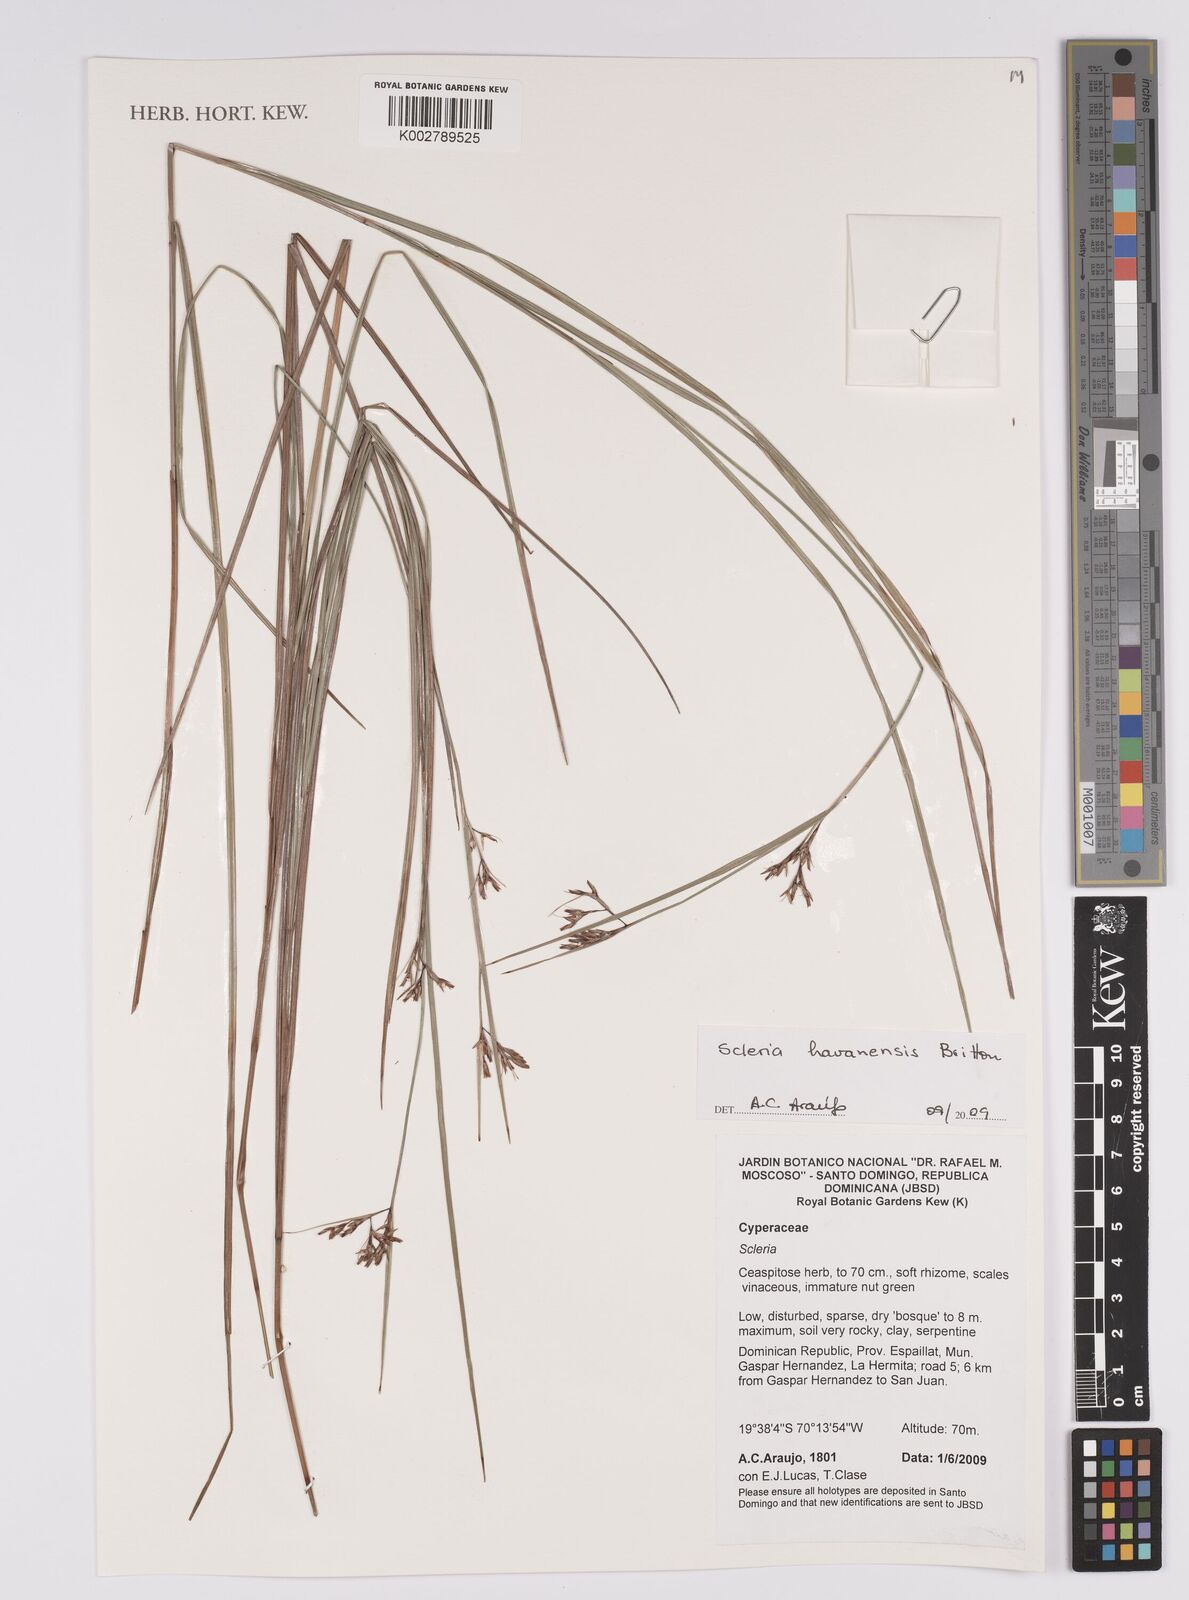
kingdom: Plantae
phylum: Tracheophyta
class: Liliopsida
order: Poales
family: Cyperaceae
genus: Scleria
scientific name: Scleria havanensis
